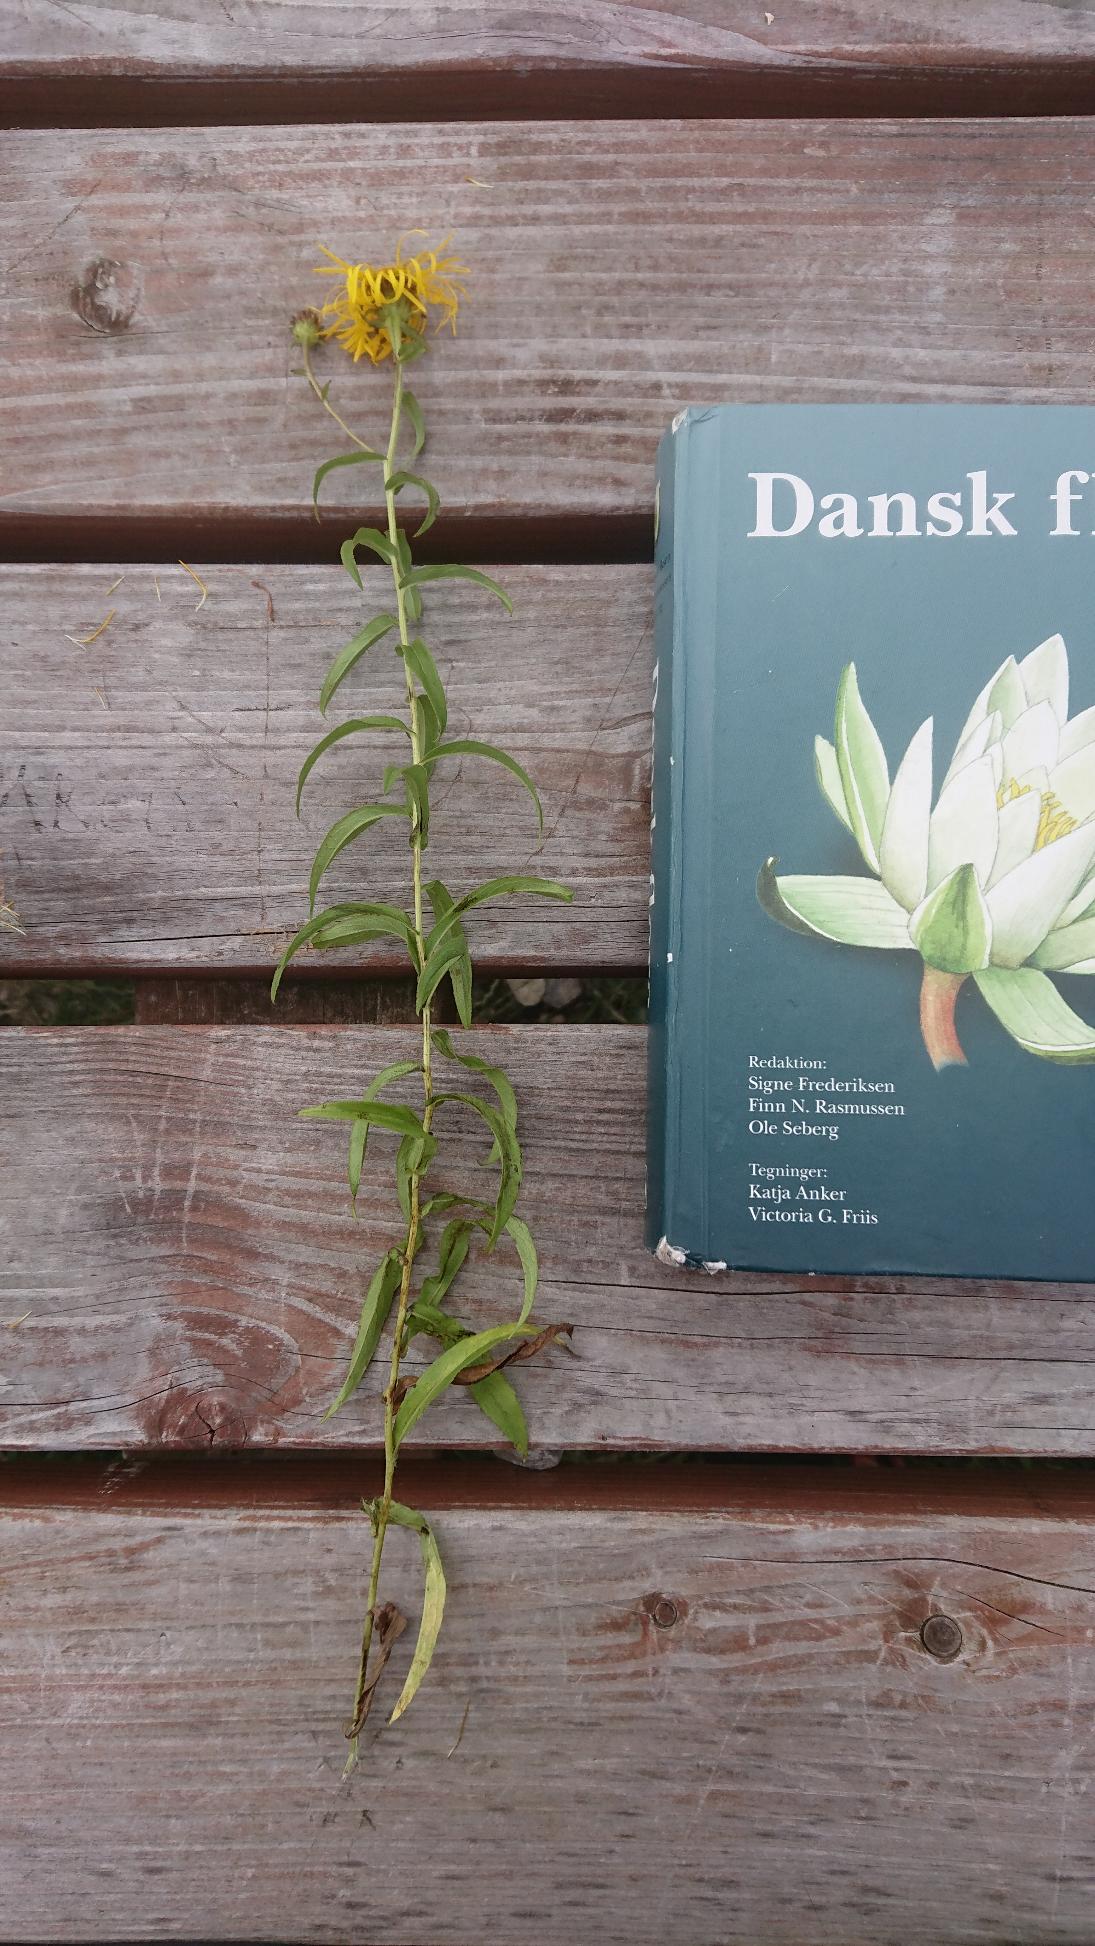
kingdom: Plantae
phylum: Tracheophyta
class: Magnoliopsida
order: Asterales
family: Asteraceae
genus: Pentanema
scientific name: Pentanema salicinum
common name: Pile-alant
